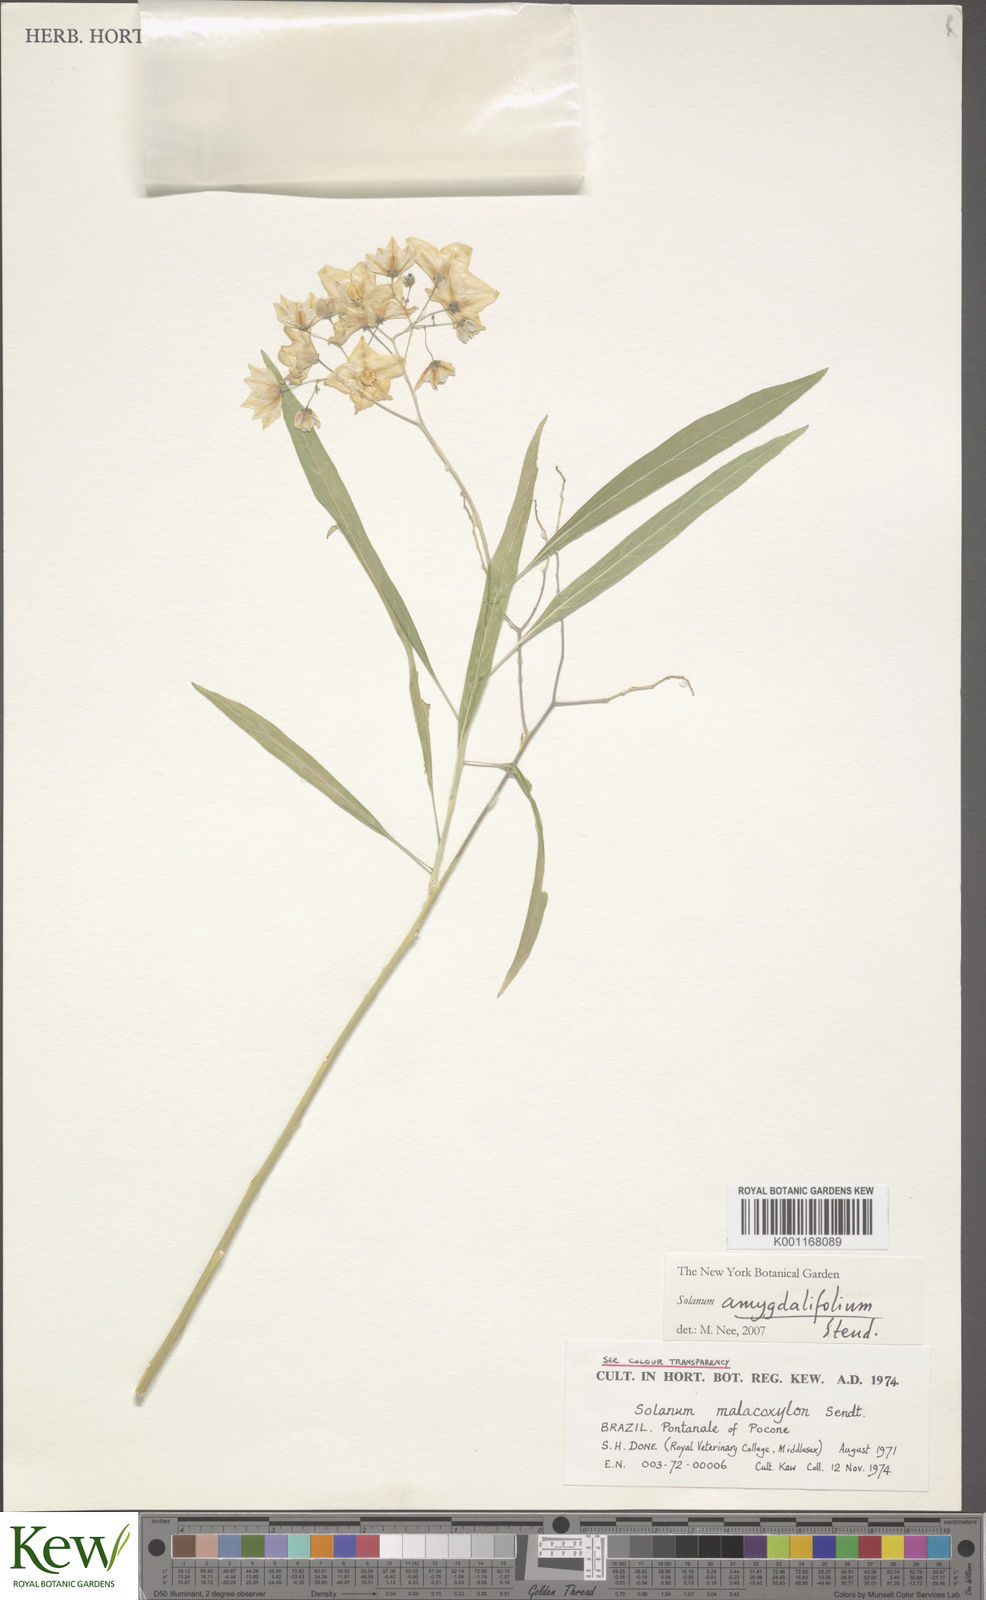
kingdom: Plantae
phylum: Tracheophyta
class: Magnoliopsida
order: Solanales
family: Solanaceae
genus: Solanum
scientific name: Solanum amygdalifolium
